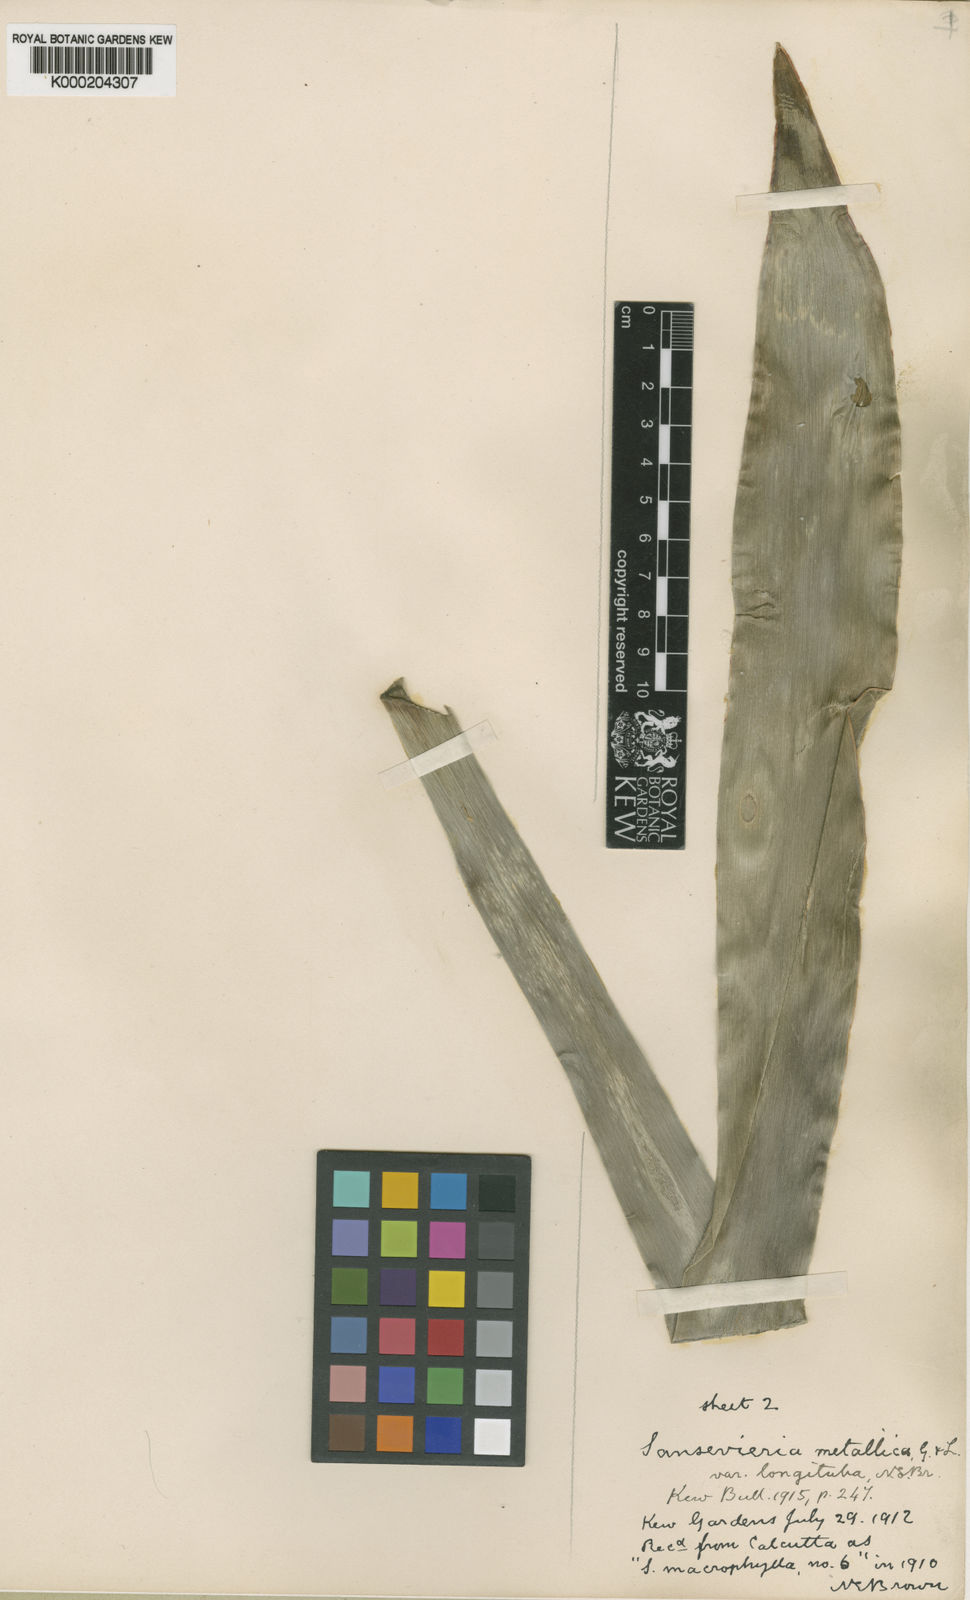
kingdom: Plantae
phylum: Tracheophyta
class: Liliopsida
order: Asparagales
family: Asparagaceae
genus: Dracaena
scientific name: Dracaena zebra
